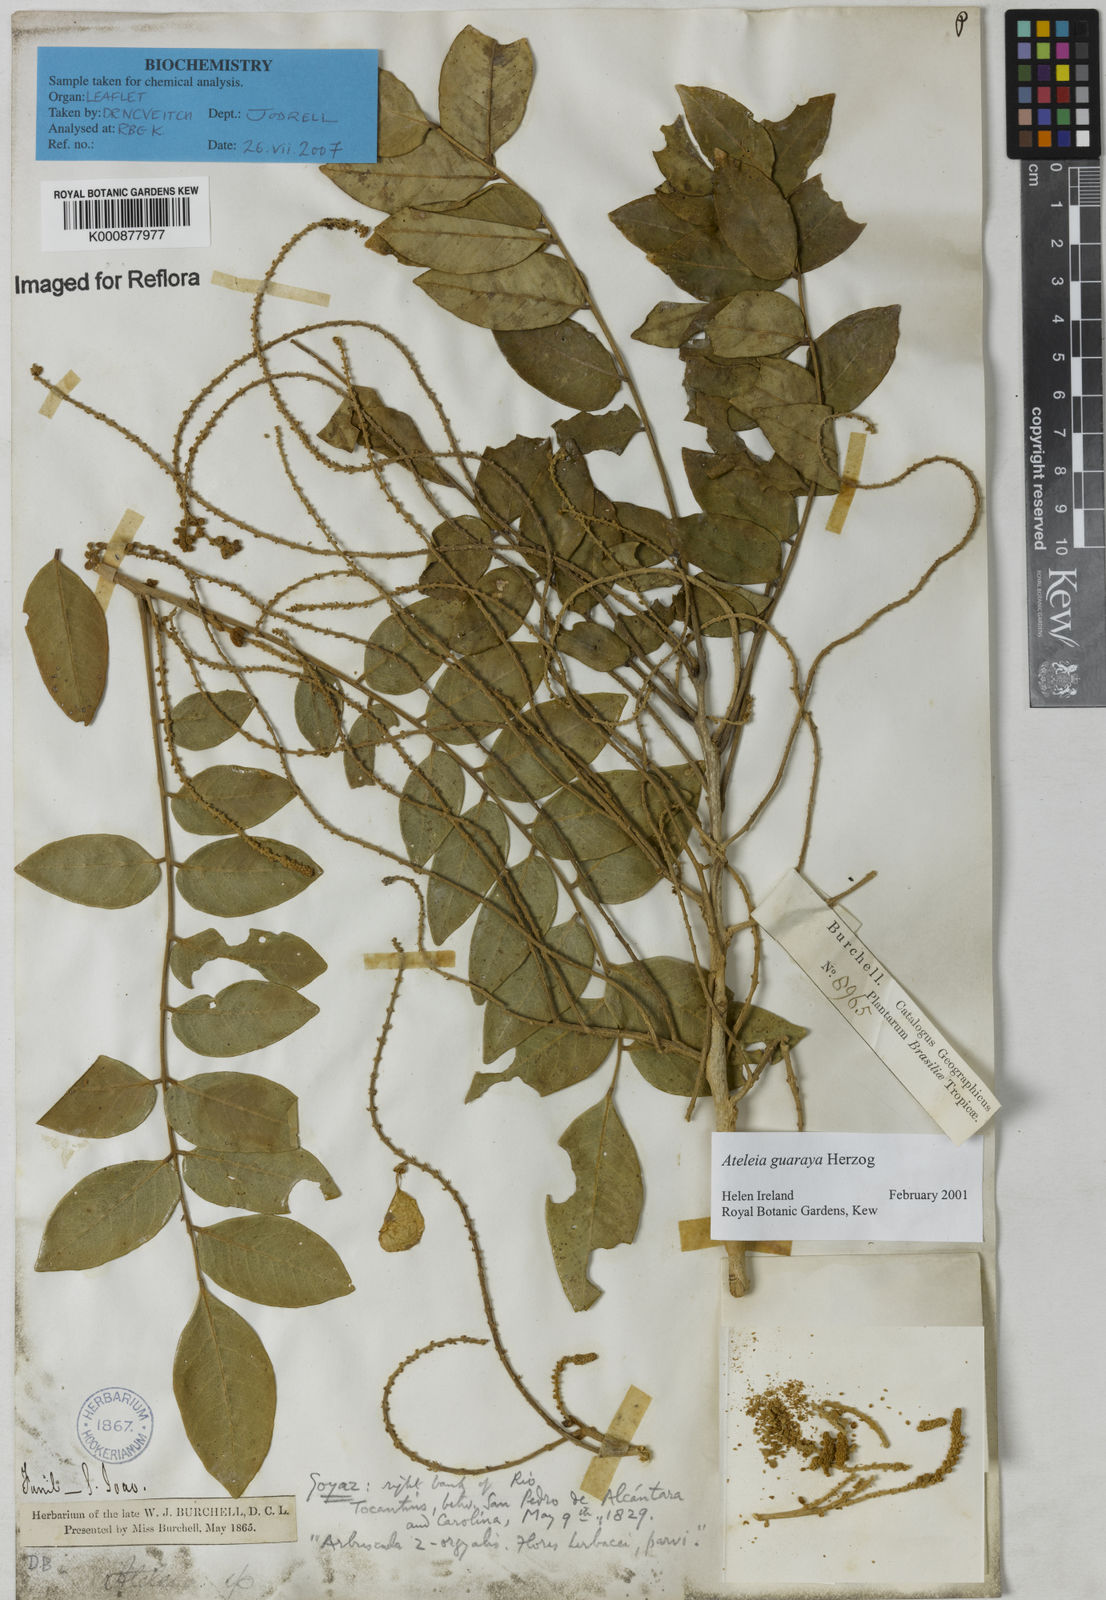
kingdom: Plantae
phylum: Tracheophyta
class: Magnoliopsida
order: Fabales
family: Fabaceae
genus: Ateleia
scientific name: Ateleia guaraya
